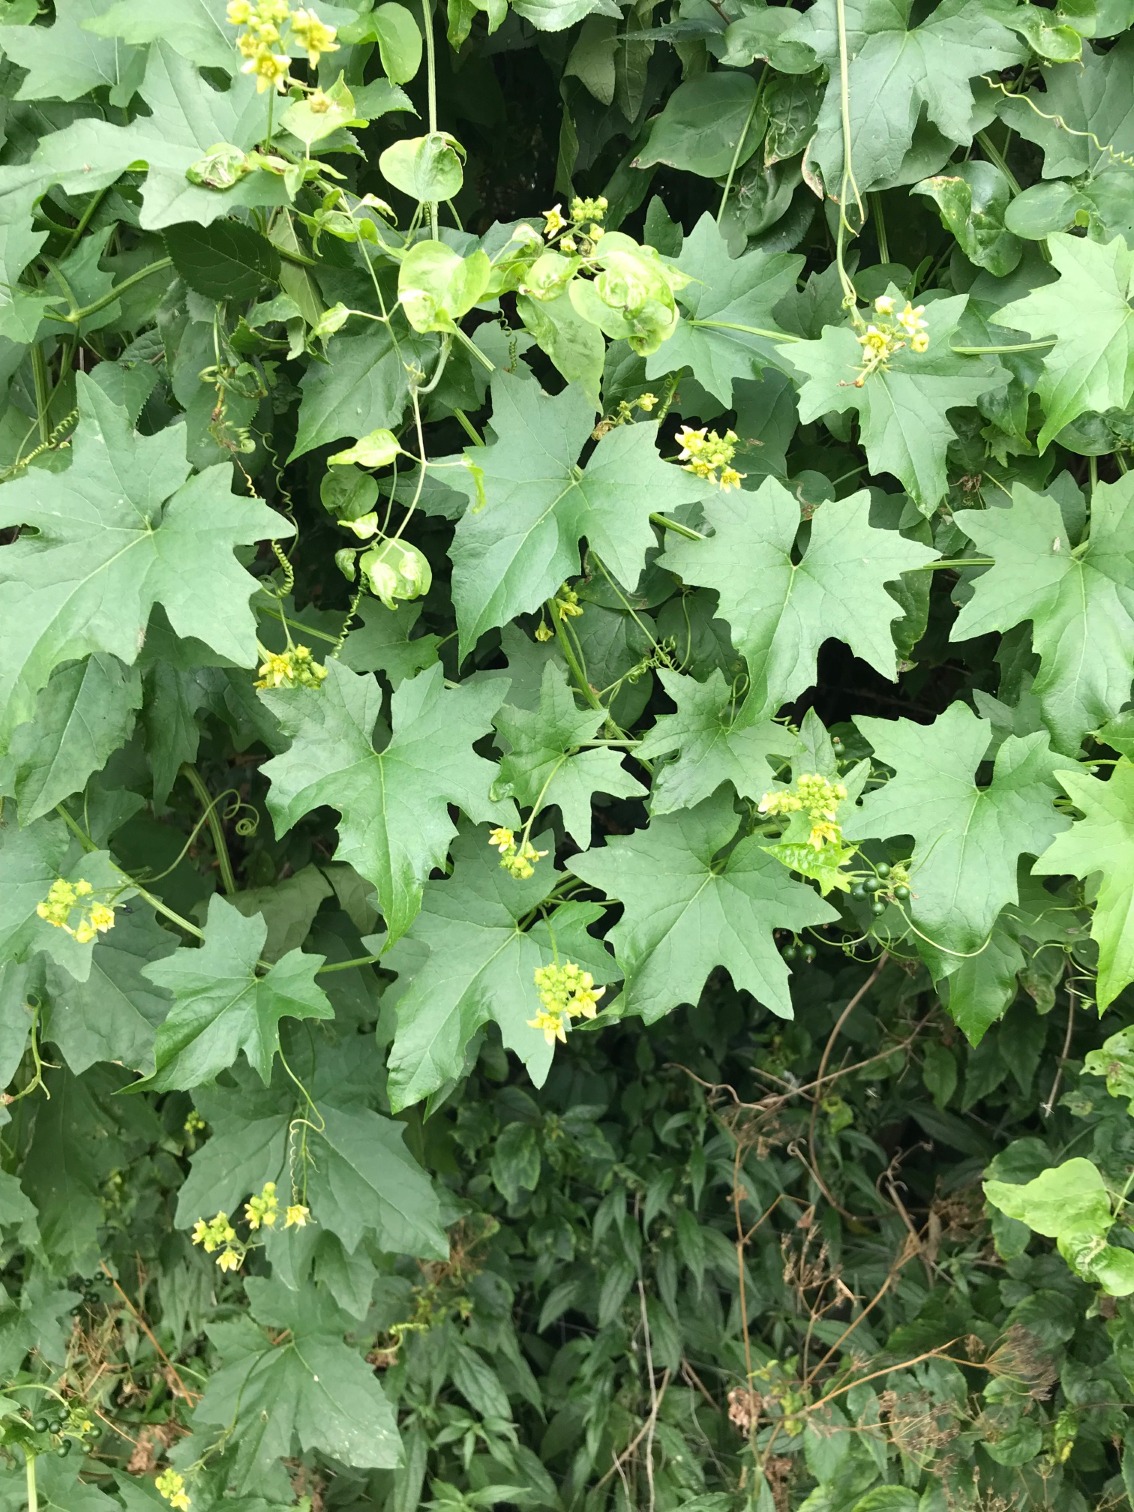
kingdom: Plantae
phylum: Tracheophyta
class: Magnoliopsida
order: Cucurbitales
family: Cucurbitaceae
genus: Bryonia
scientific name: Bryonia alba
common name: Enbo galdebær
